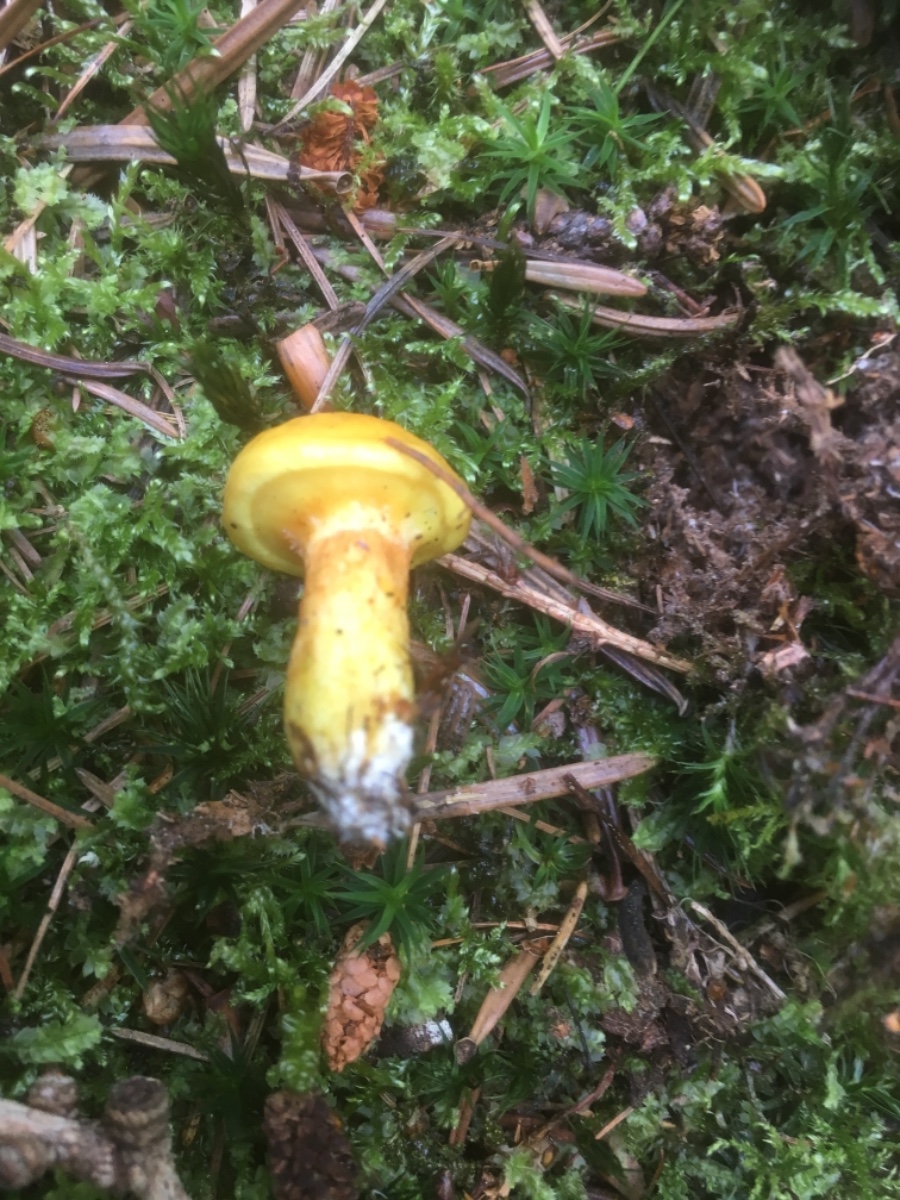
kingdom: Fungi
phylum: Basidiomycota
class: Agaricomycetes
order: Boletales
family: Suillaceae
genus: Suillus
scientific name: Suillus grevillei
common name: lærke-slimrørhat
